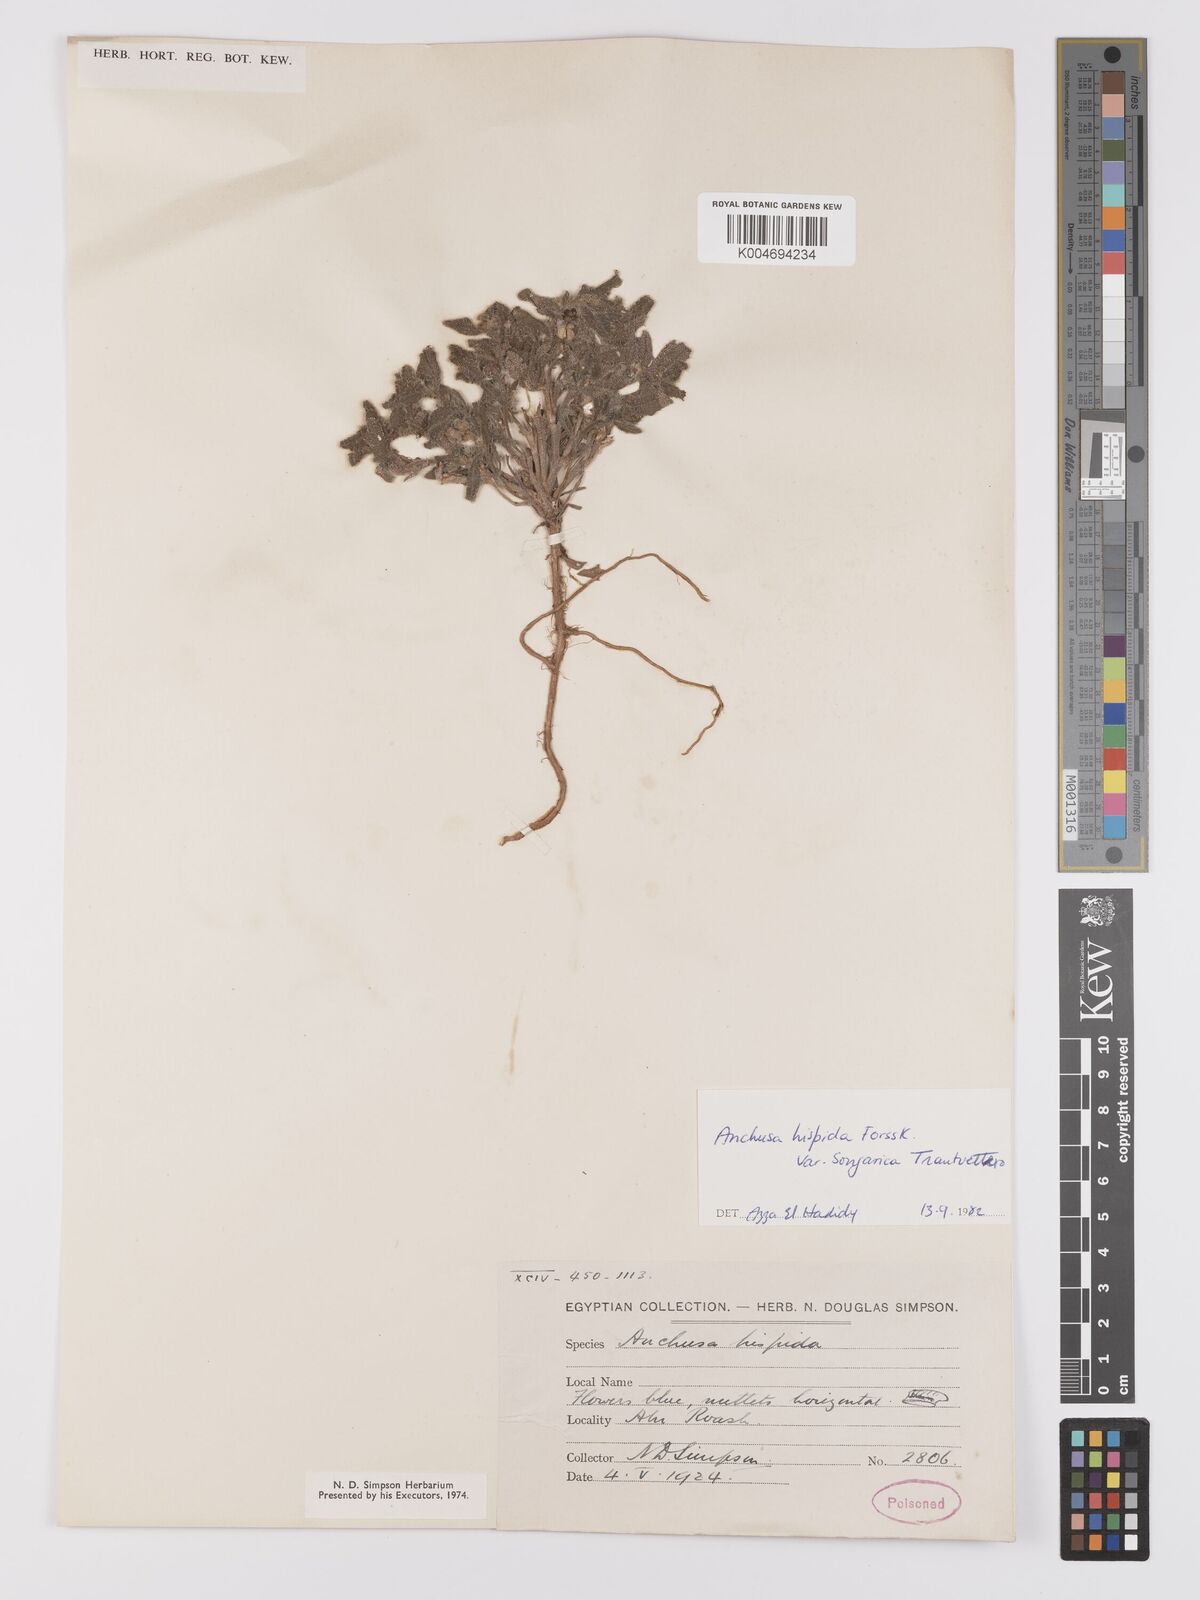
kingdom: Plantae
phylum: Tracheophyta
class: Magnoliopsida
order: Boraginales
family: Boraginaceae
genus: Gastrocotyle
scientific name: Gastrocotyle hispida
